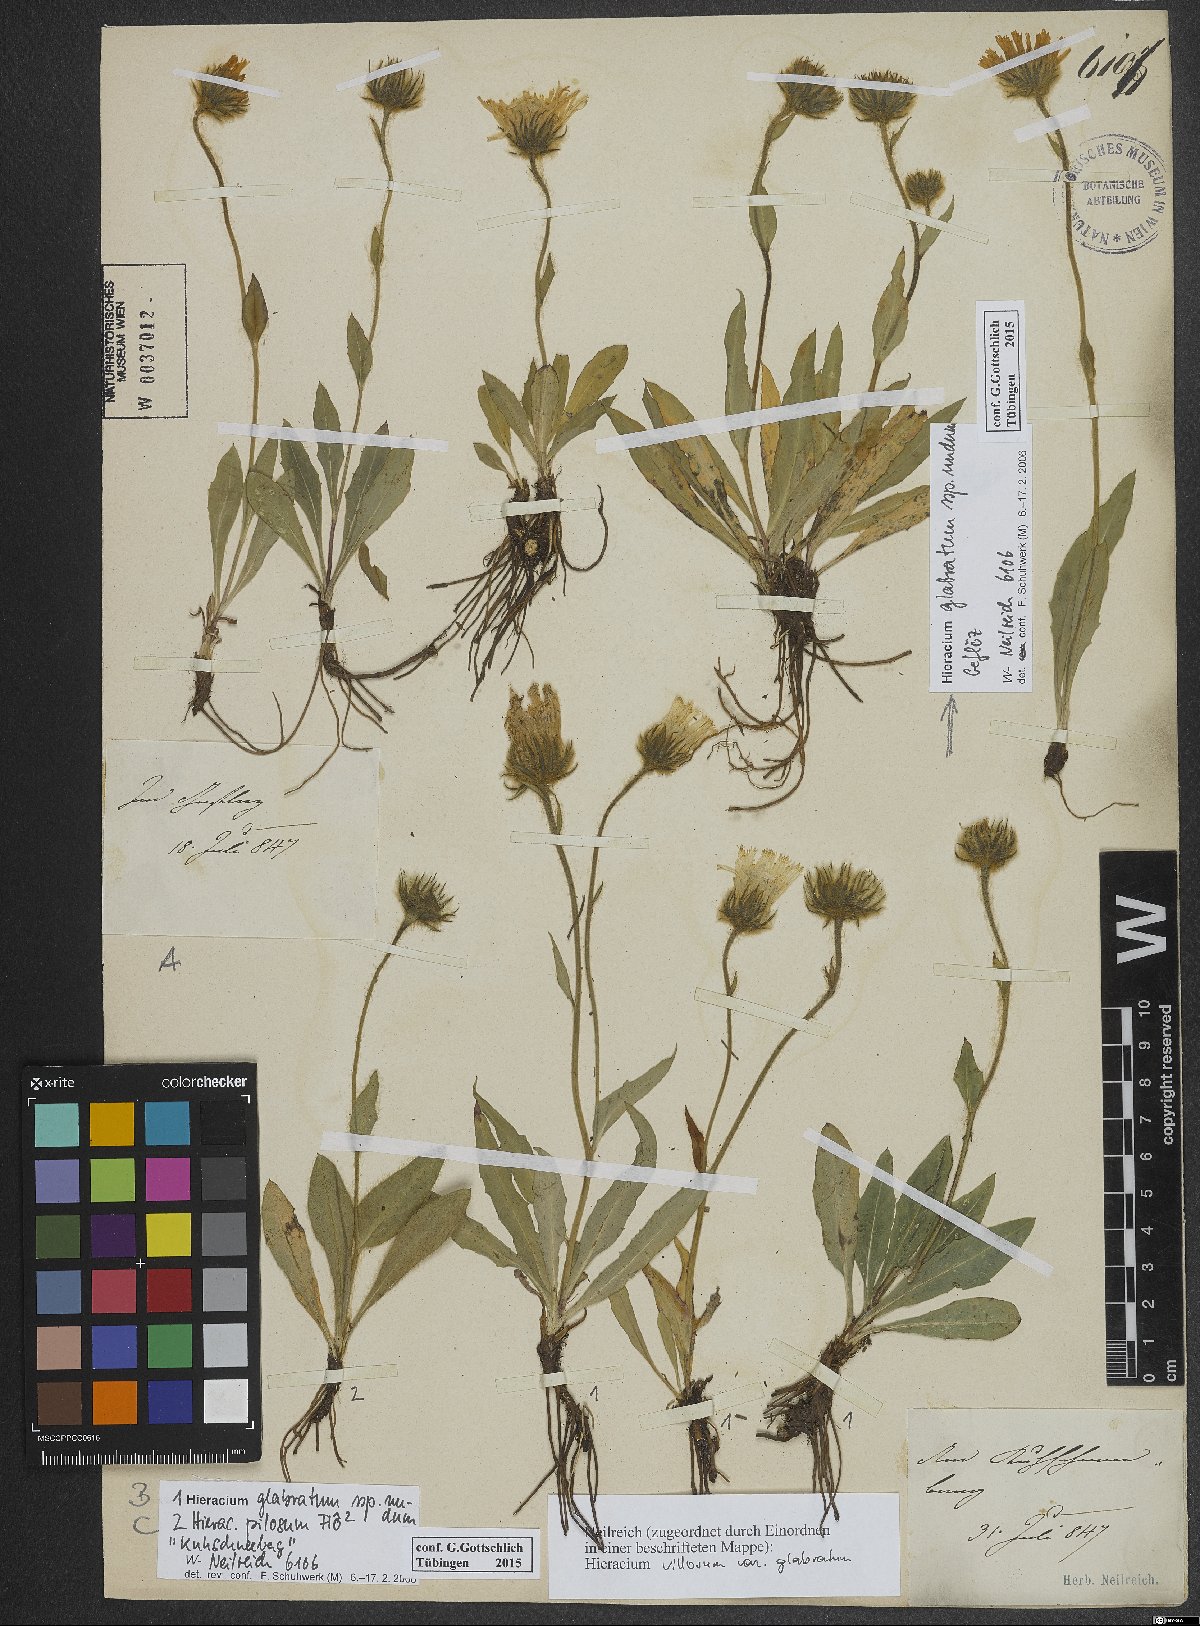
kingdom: Plantae
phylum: Tracheophyta
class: Magnoliopsida
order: Asterales
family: Asteraceae
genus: Hieracium
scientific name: Hieracium glabratum
